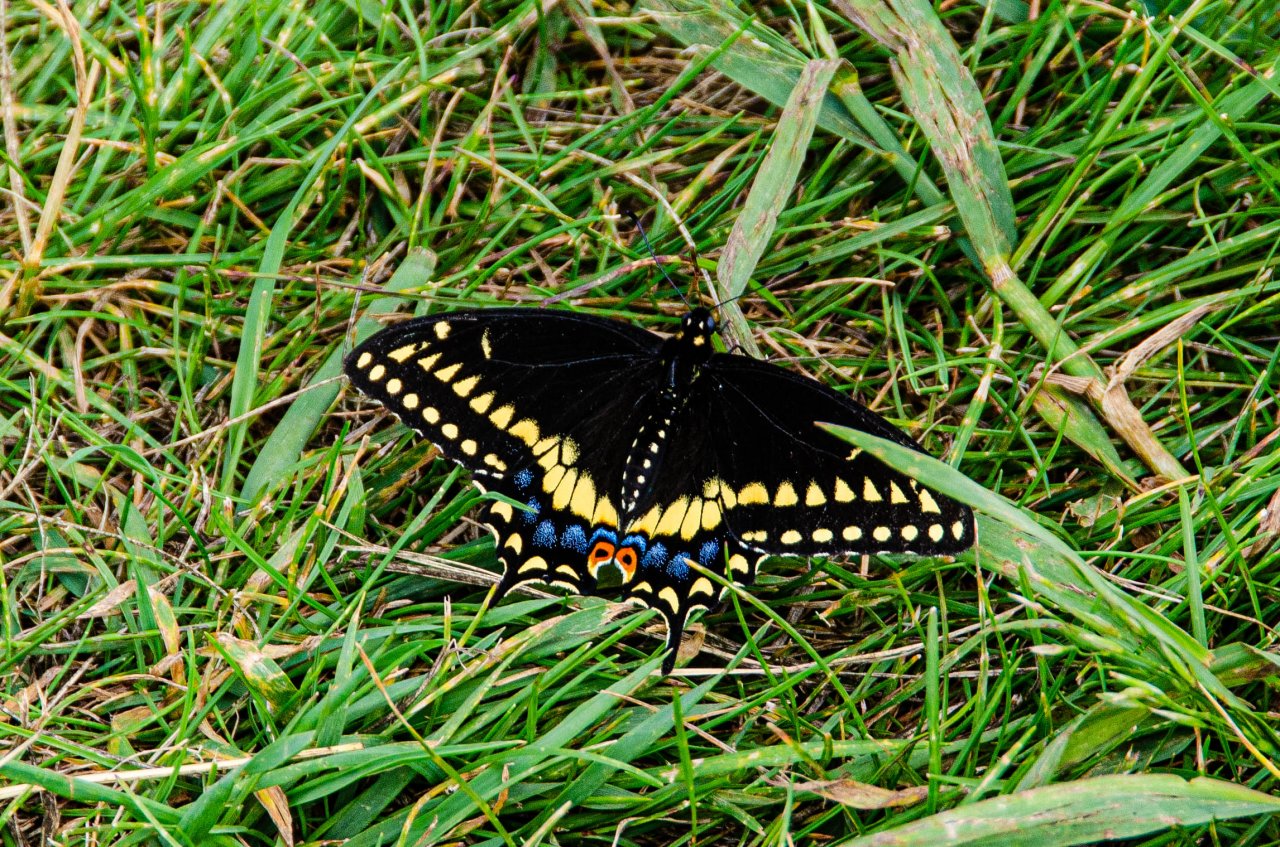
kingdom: Animalia
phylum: Arthropoda
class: Insecta
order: Lepidoptera
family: Papilionidae
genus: Papilio
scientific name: Papilio polyxenes
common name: Black Swallowtail
